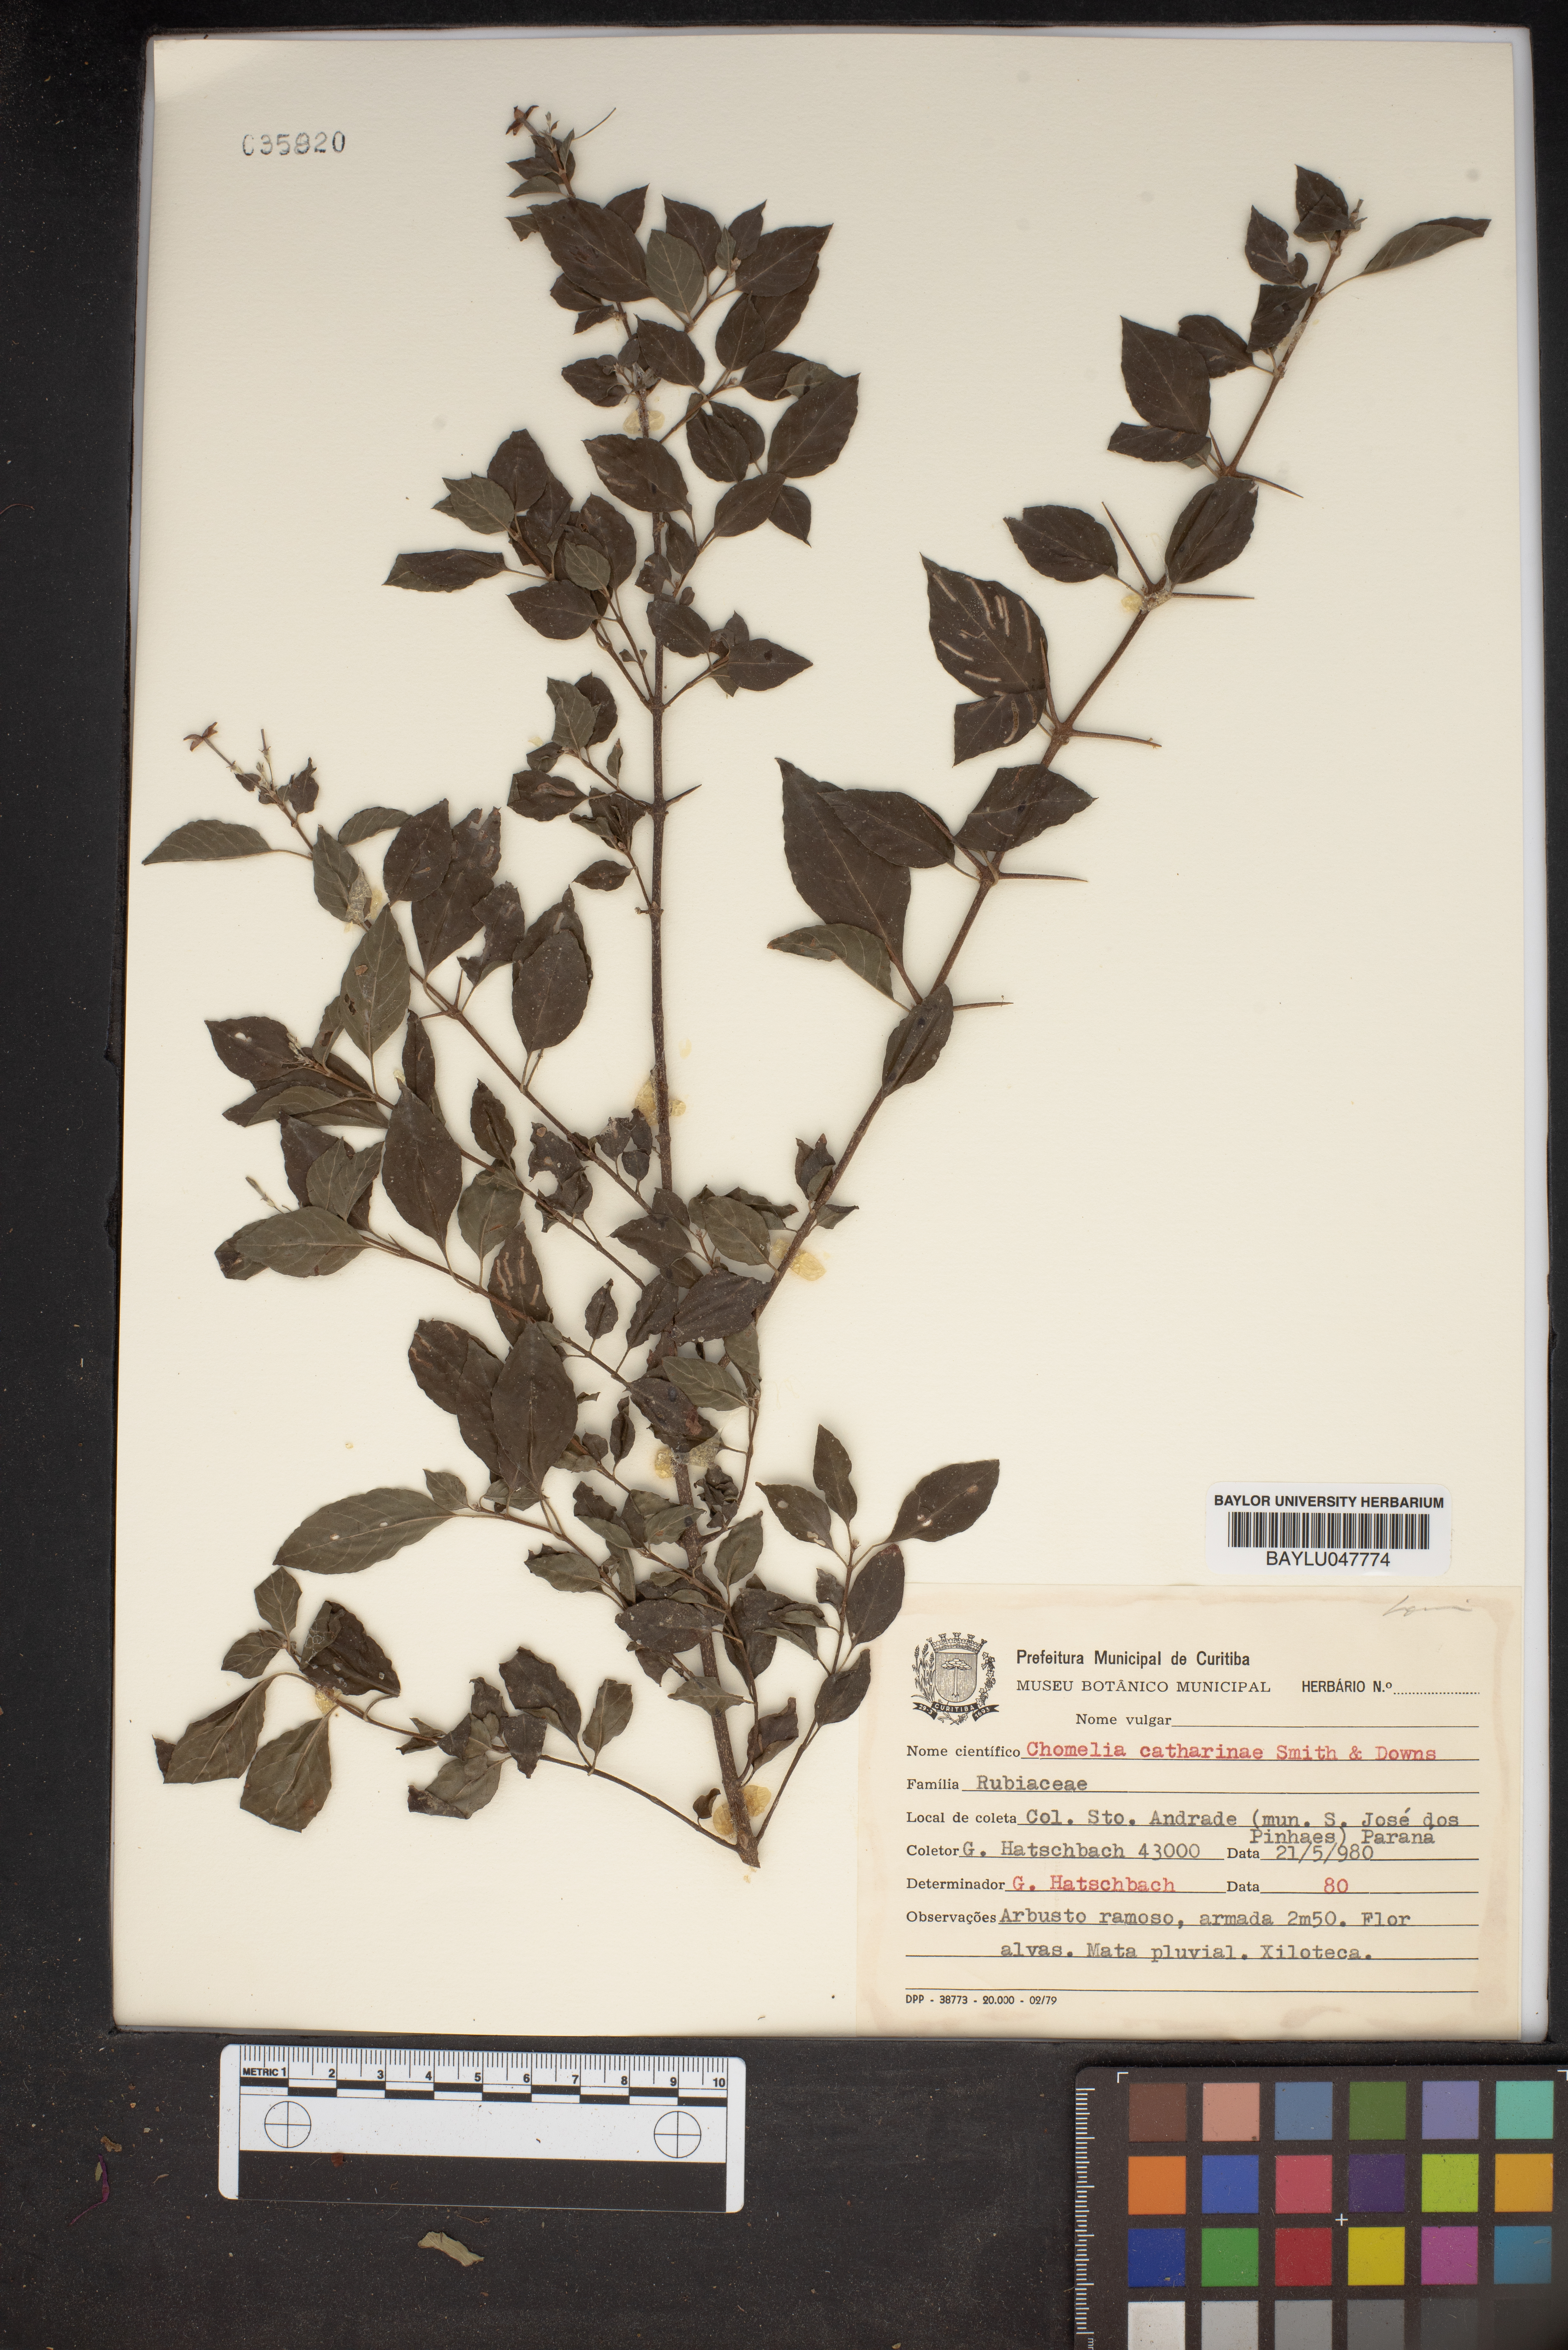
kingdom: Plantae
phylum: Tracheophyta
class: Magnoliopsida
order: Gentianales
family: Rubiaceae
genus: Chomelia
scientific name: Chomelia parvifolia
